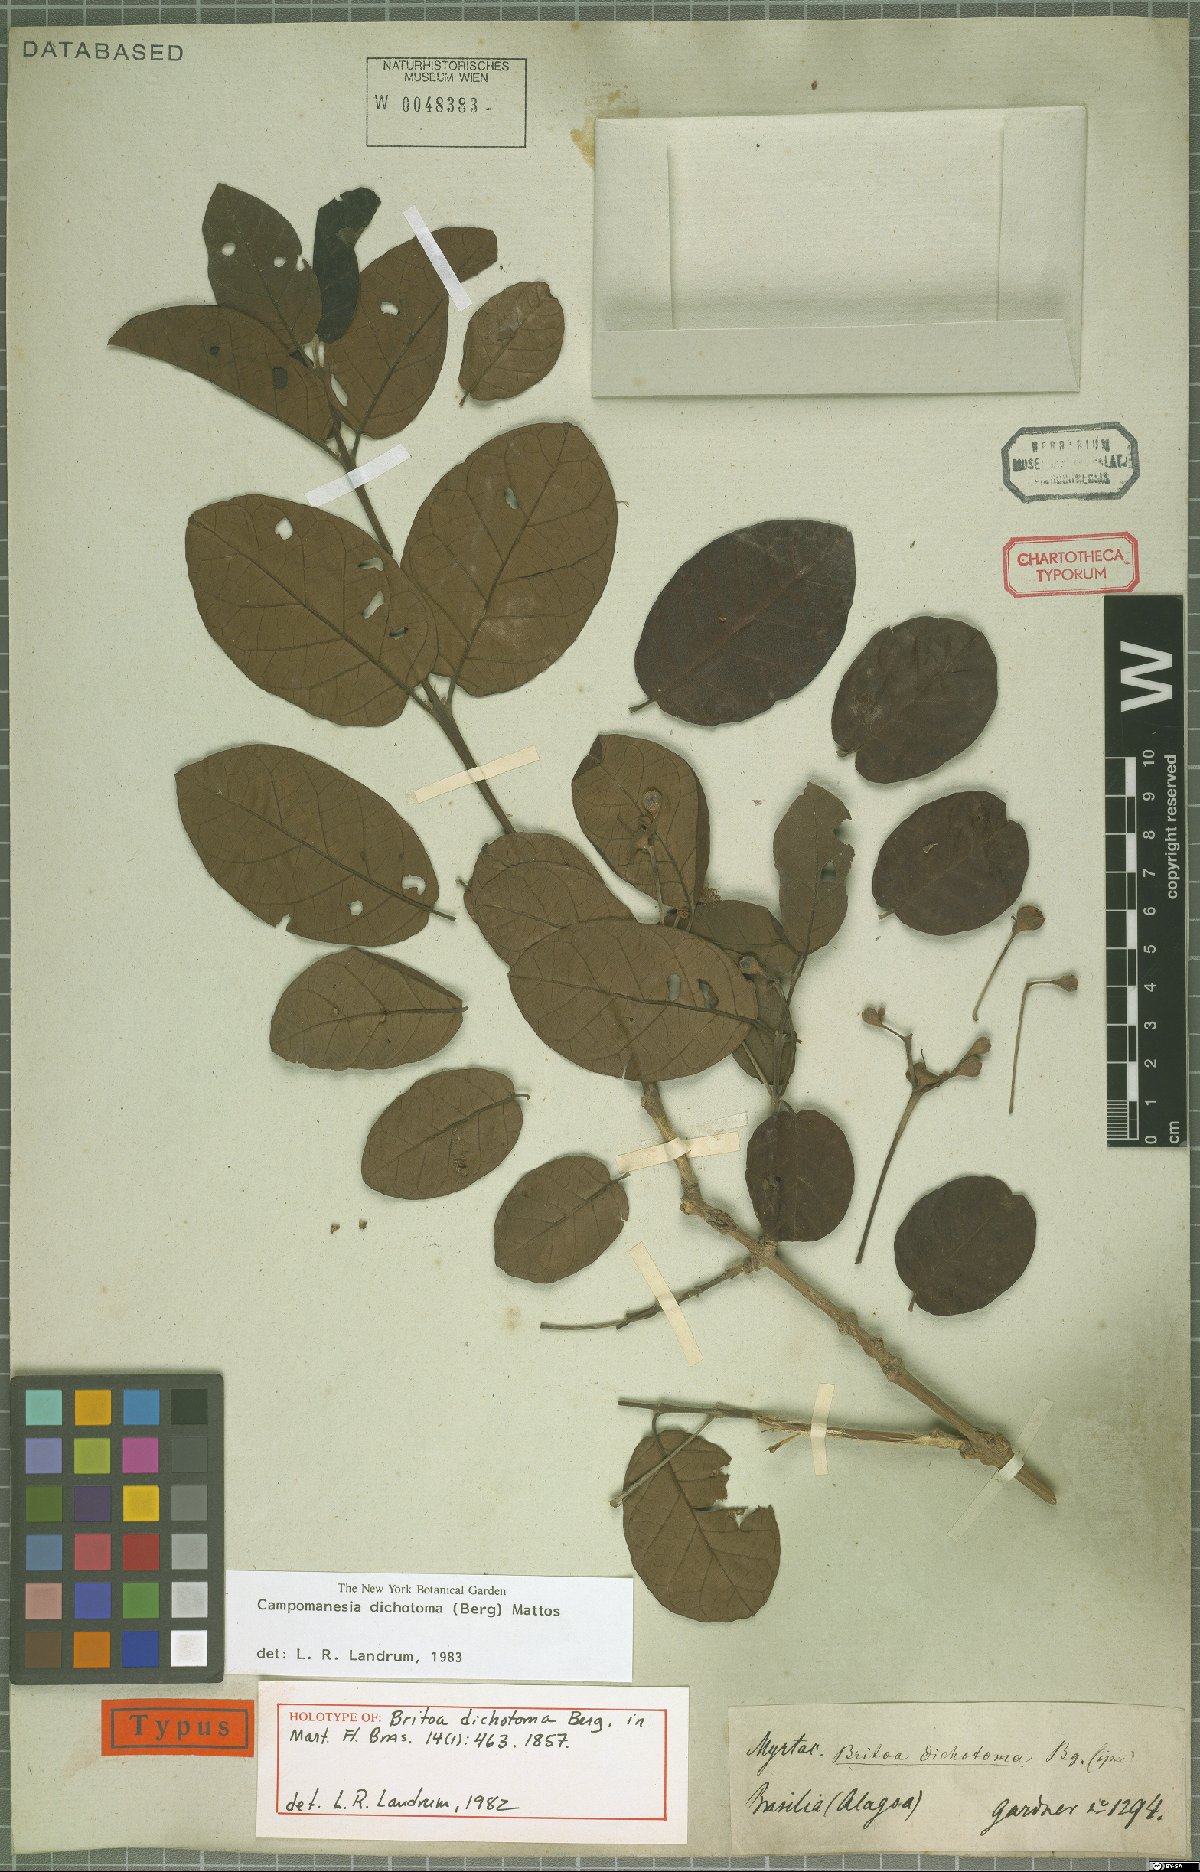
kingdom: Plantae
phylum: Tracheophyta
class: Magnoliopsida
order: Myrtales
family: Myrtaceae
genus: Campomanesia
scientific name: Campomanesia dichotoma
